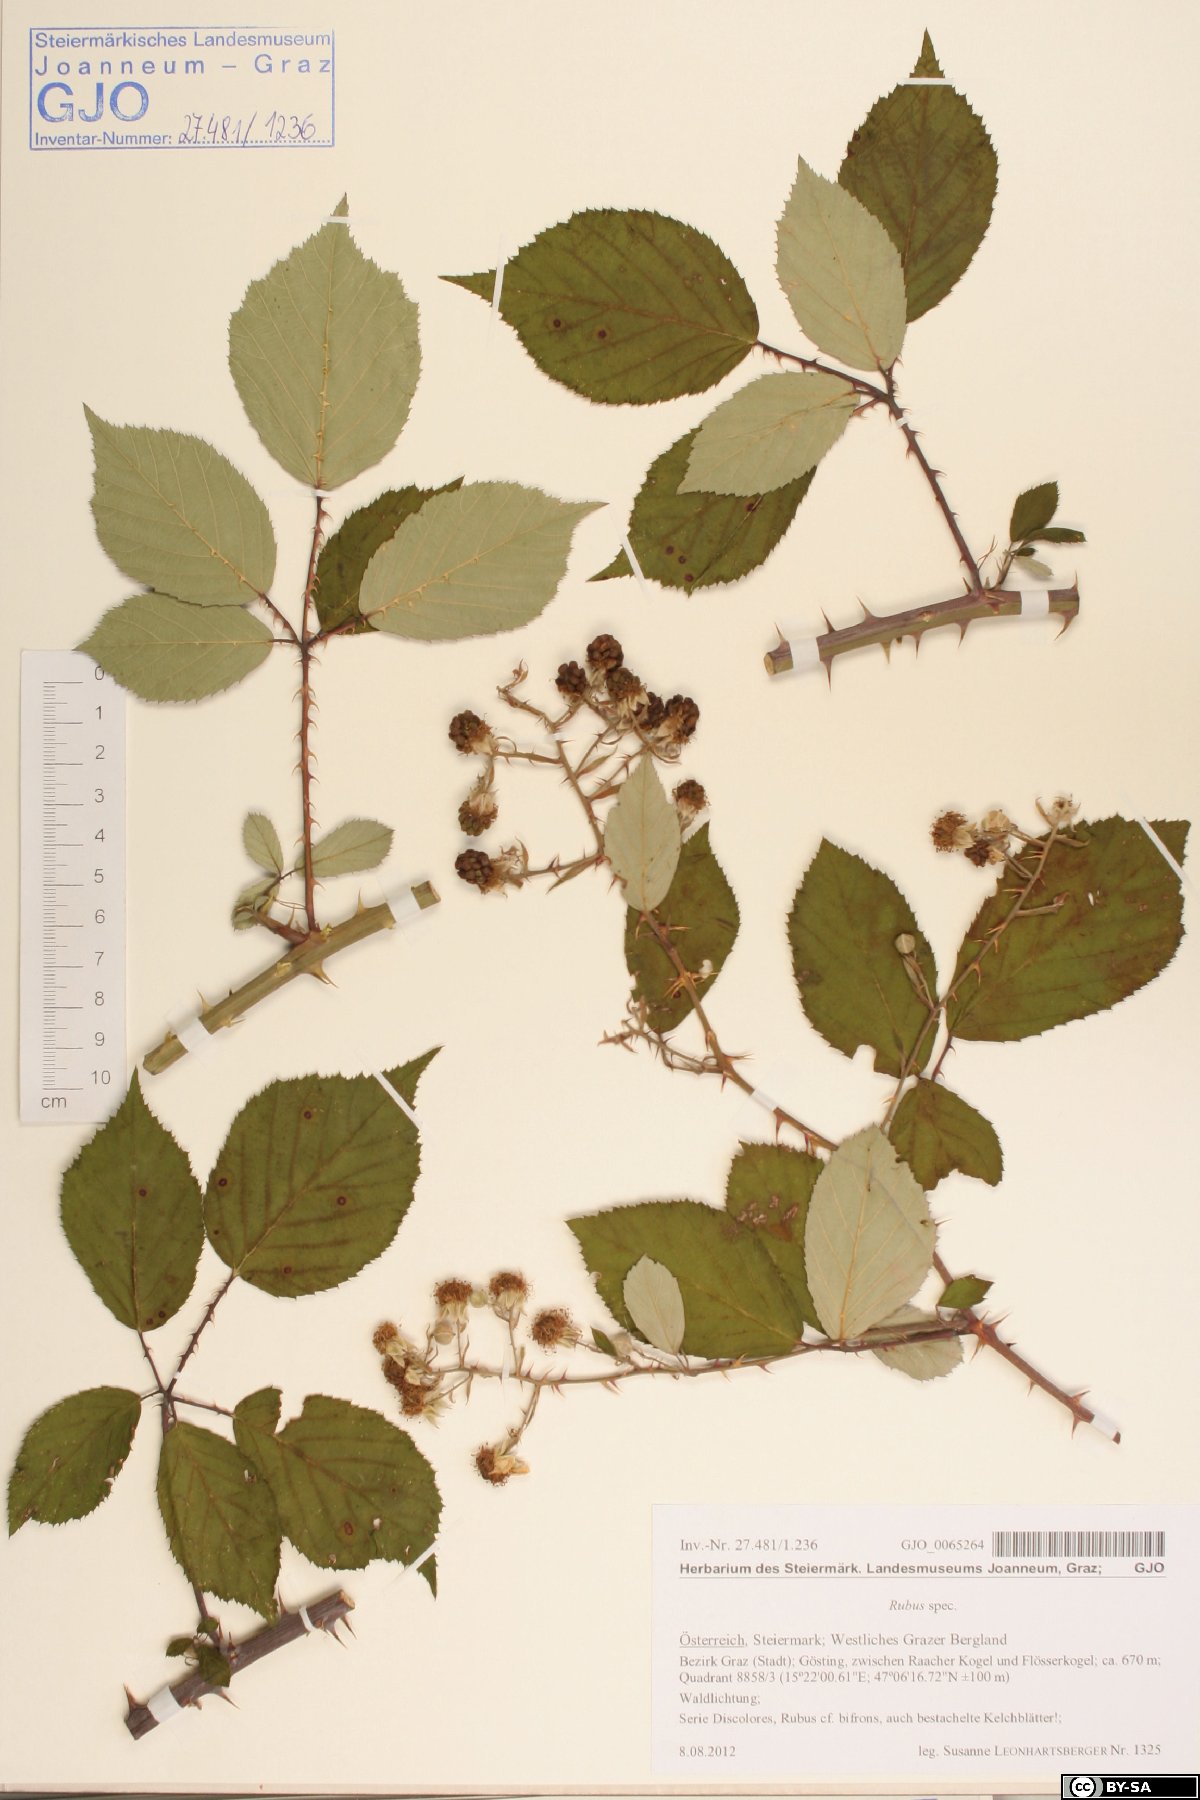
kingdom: Plantae
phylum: Tracheophyta
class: Magnoliopsida
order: Rosales
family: Rosaceae
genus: Rubus
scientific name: Rubus
